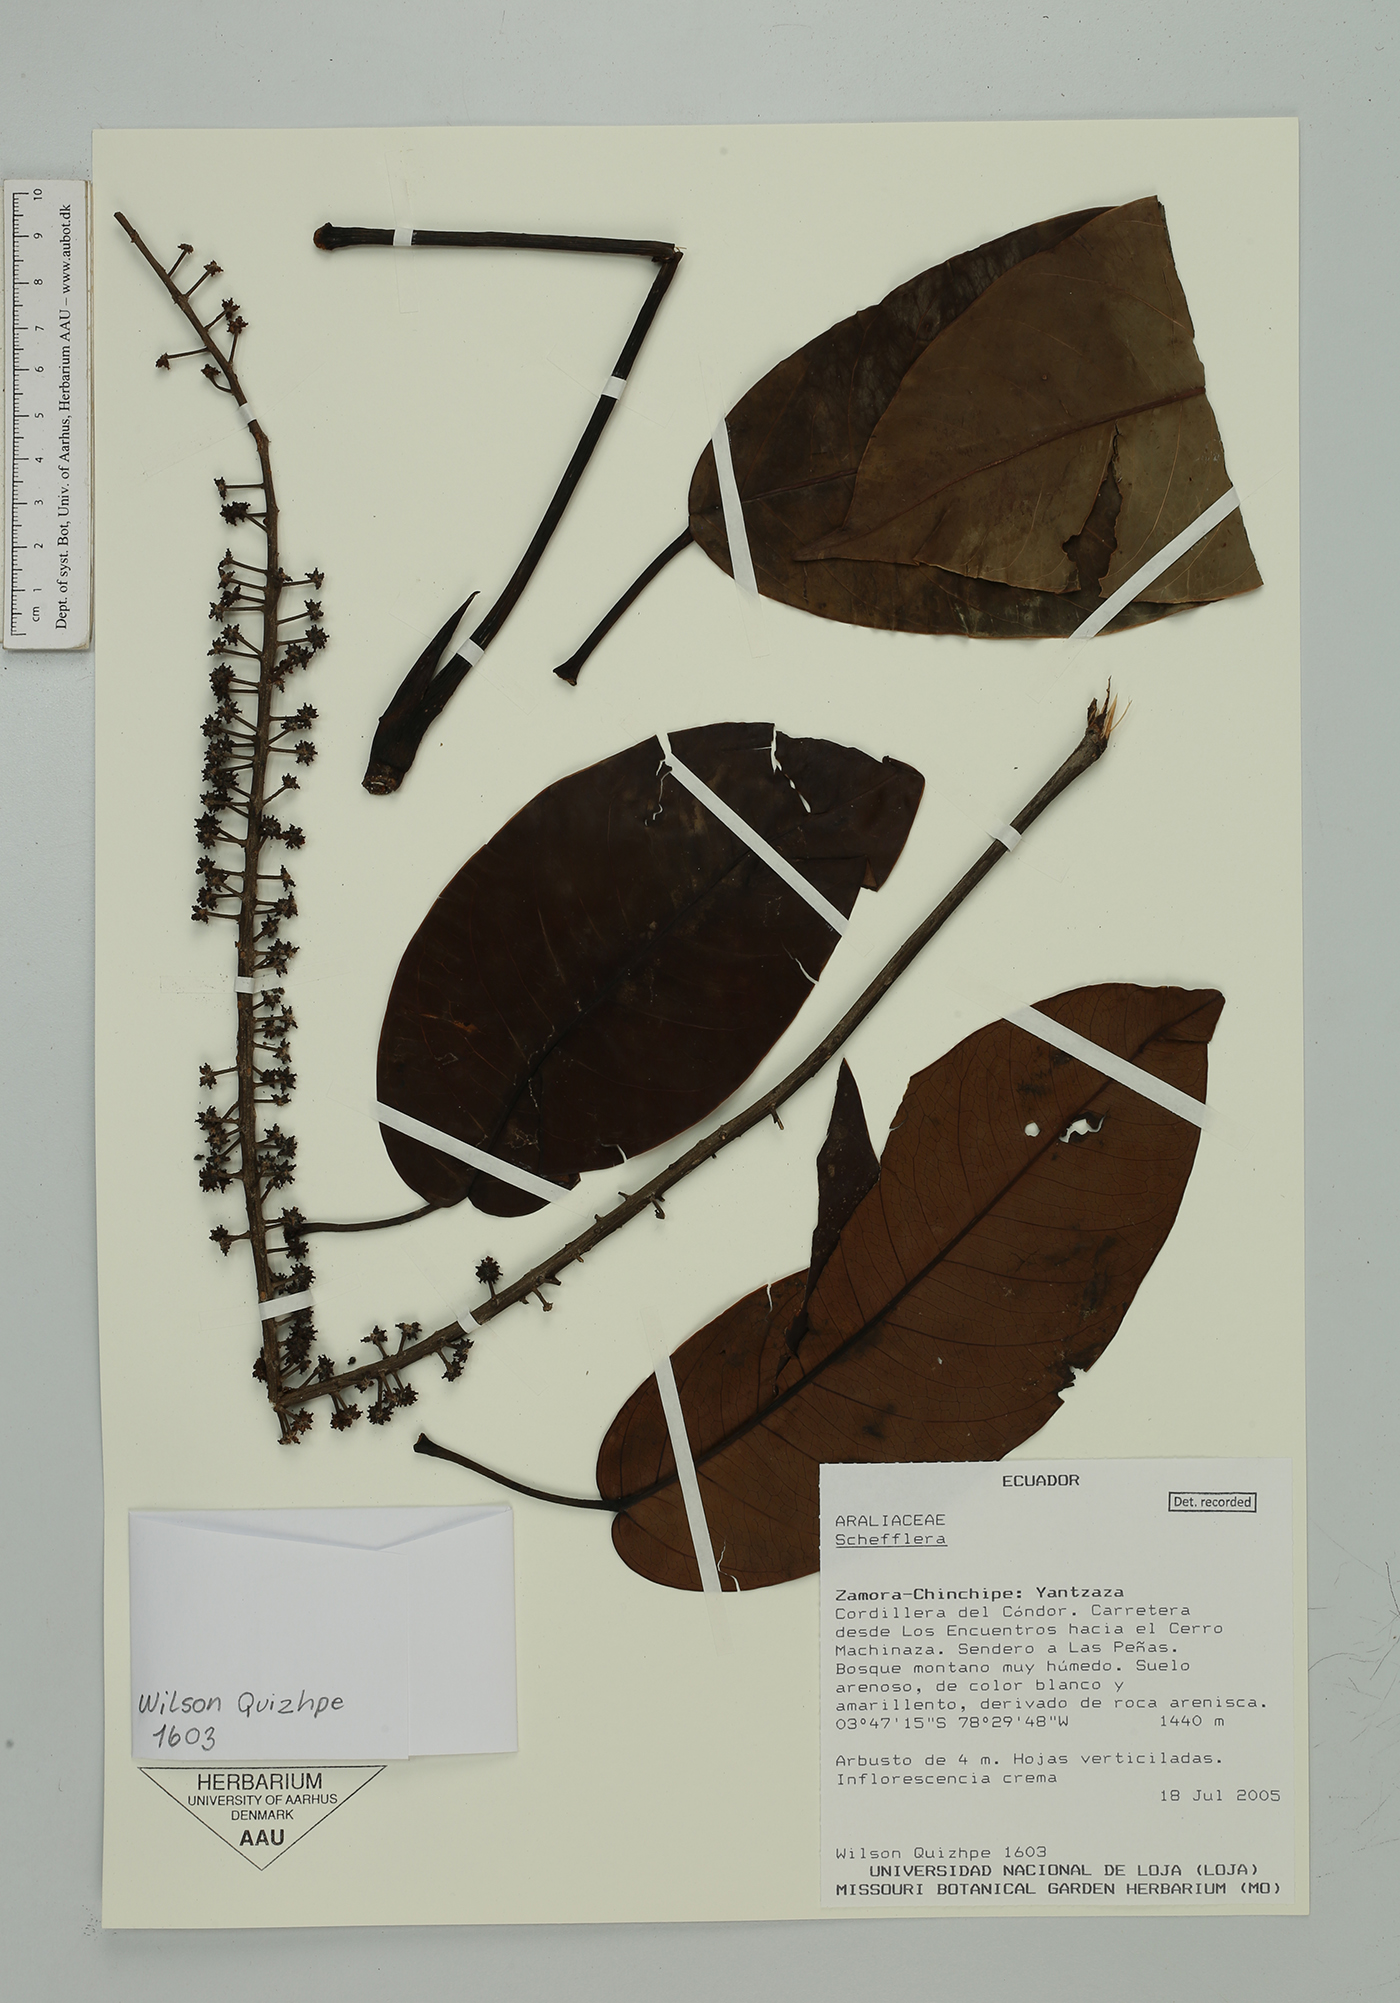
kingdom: Plantae
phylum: Tracheophyta
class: Magnoliopsida
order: Apiales
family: Araliaceae
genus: Sciodaphyllum
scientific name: Sciodaphyllum
